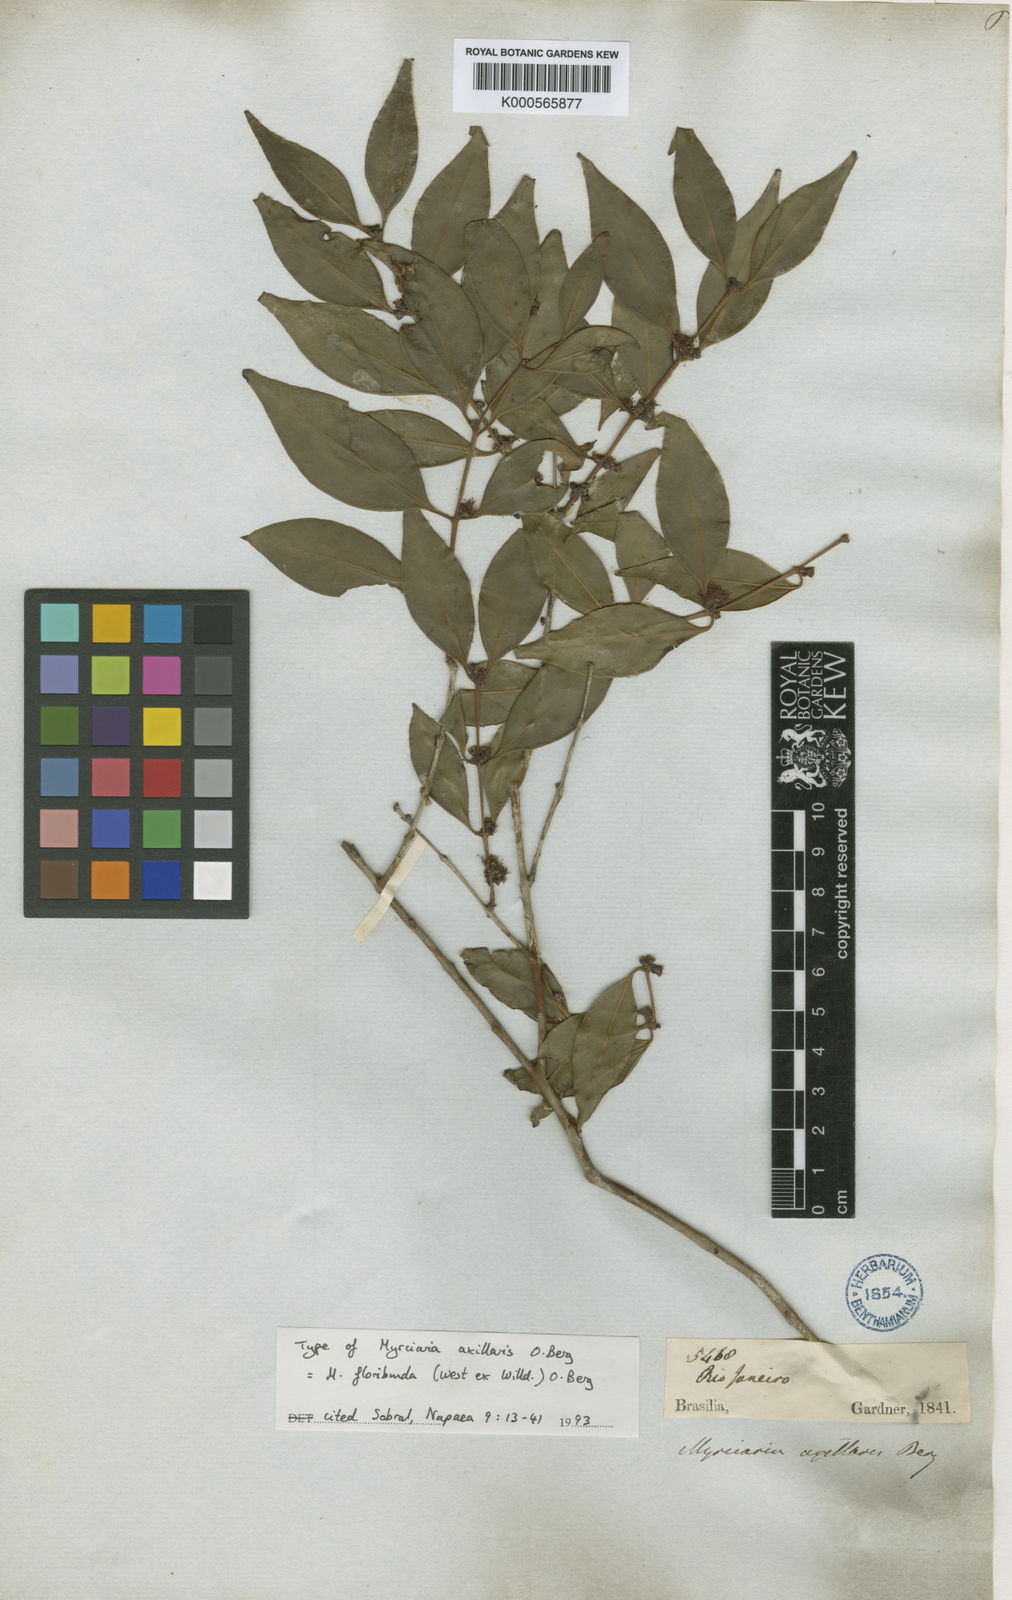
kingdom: Plantae
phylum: Tracheophyta
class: Magnoliopsida
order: Myrtales
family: Myrtaceae
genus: Myrciaria
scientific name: Myrciaria floribunda
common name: Guavaberry
